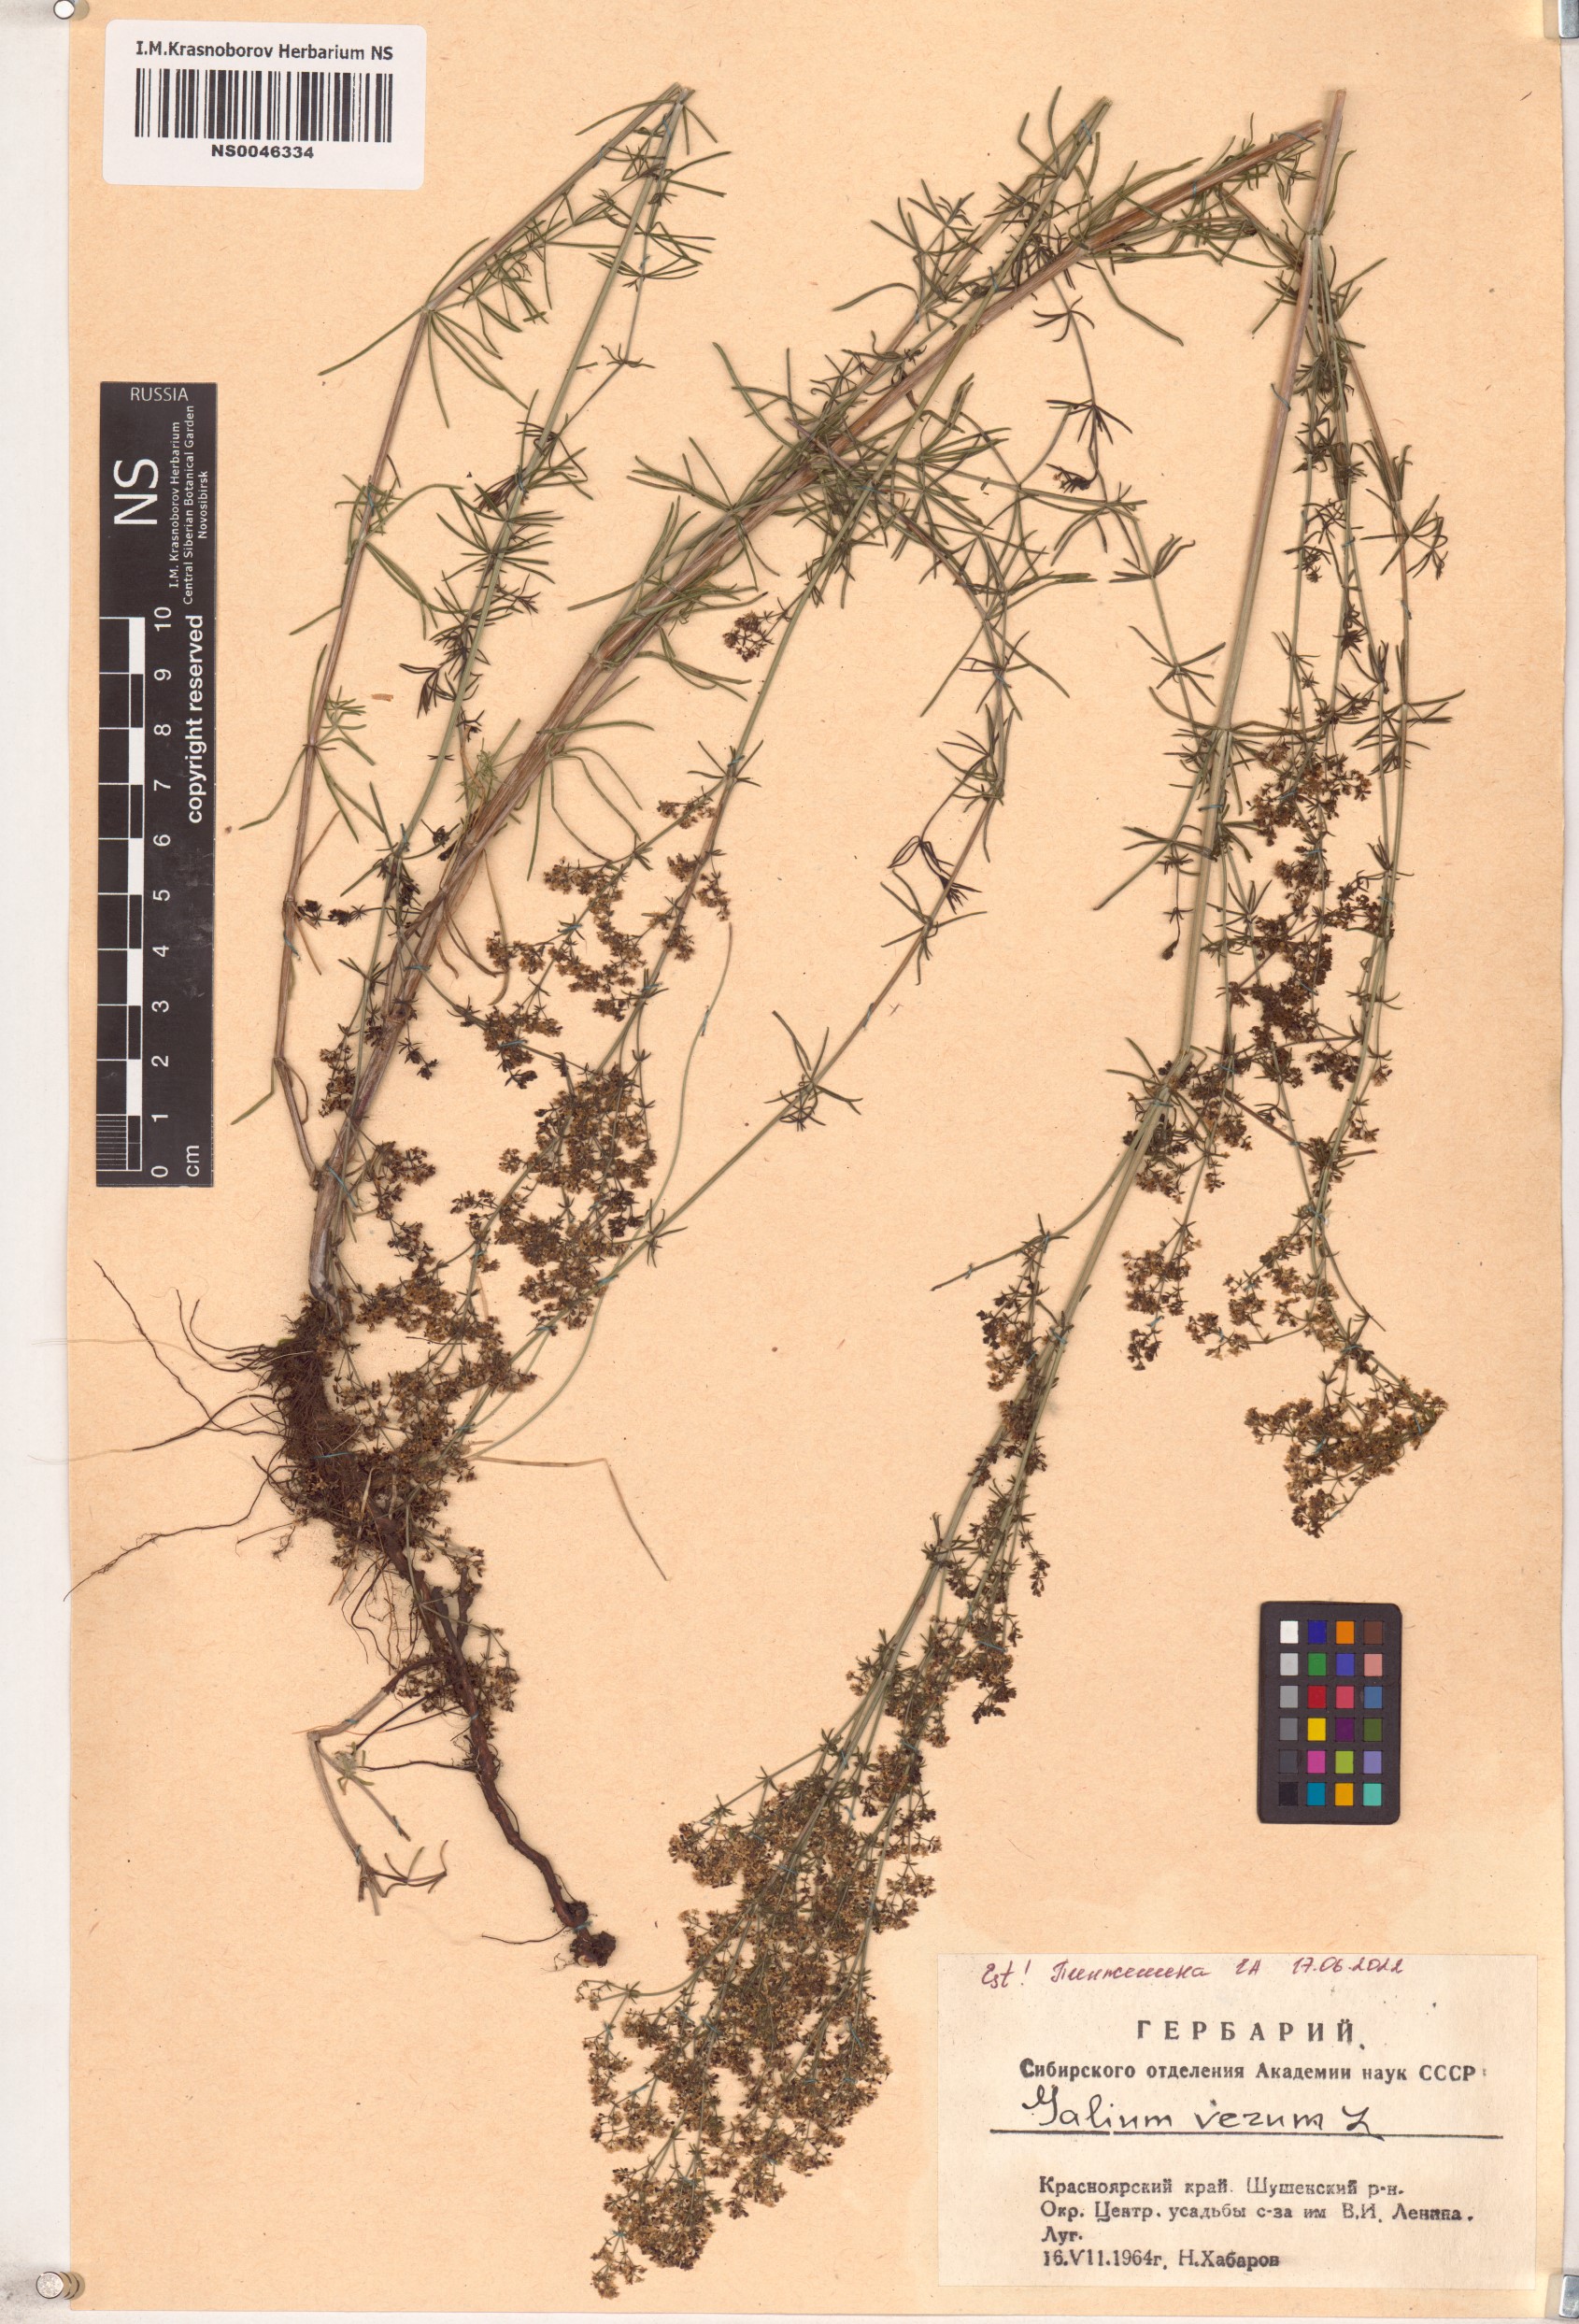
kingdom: Plantae
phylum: Tracheophyta
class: Magnoliopsida
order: Gentianales
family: Rubiaceae
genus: Galium
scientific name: Galium verum
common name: Lady's bedstraw
